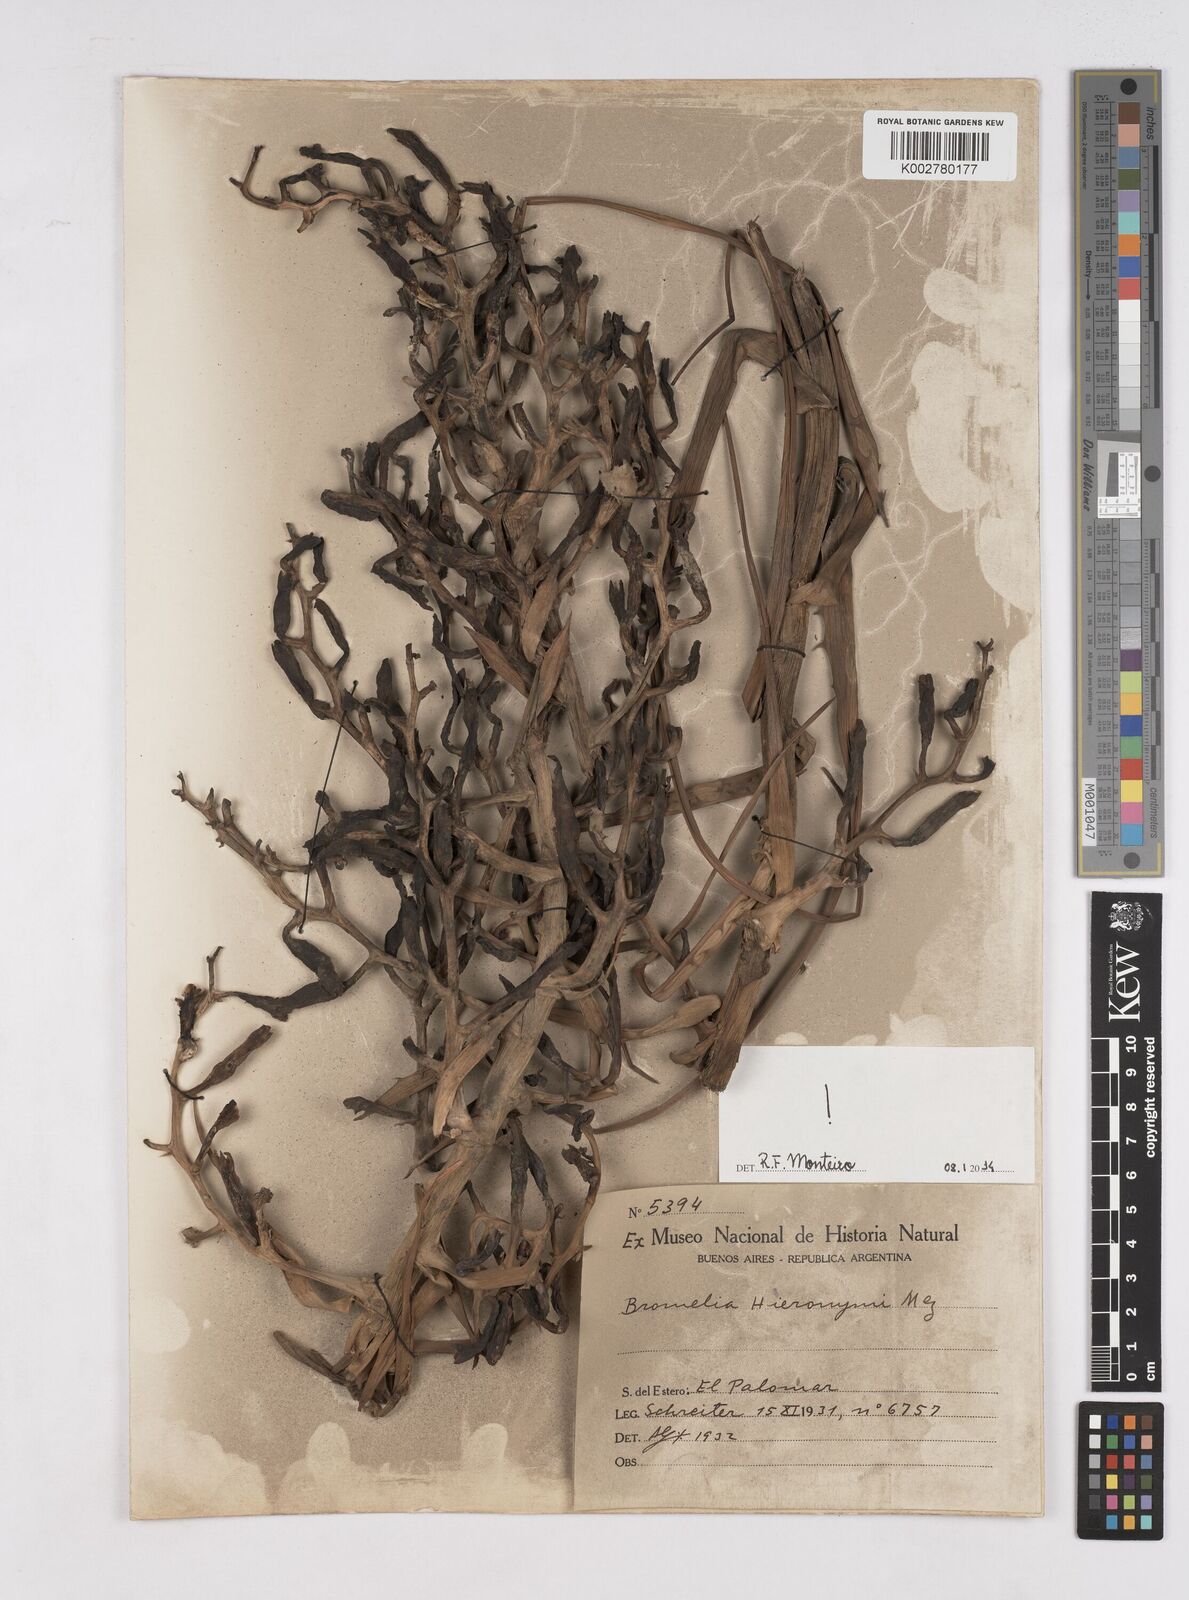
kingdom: Plantae
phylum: Tracheophyta
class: Liliopsida
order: Poales
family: Bromeliaceae
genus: Bromelia
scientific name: Bromelia hieronymi
